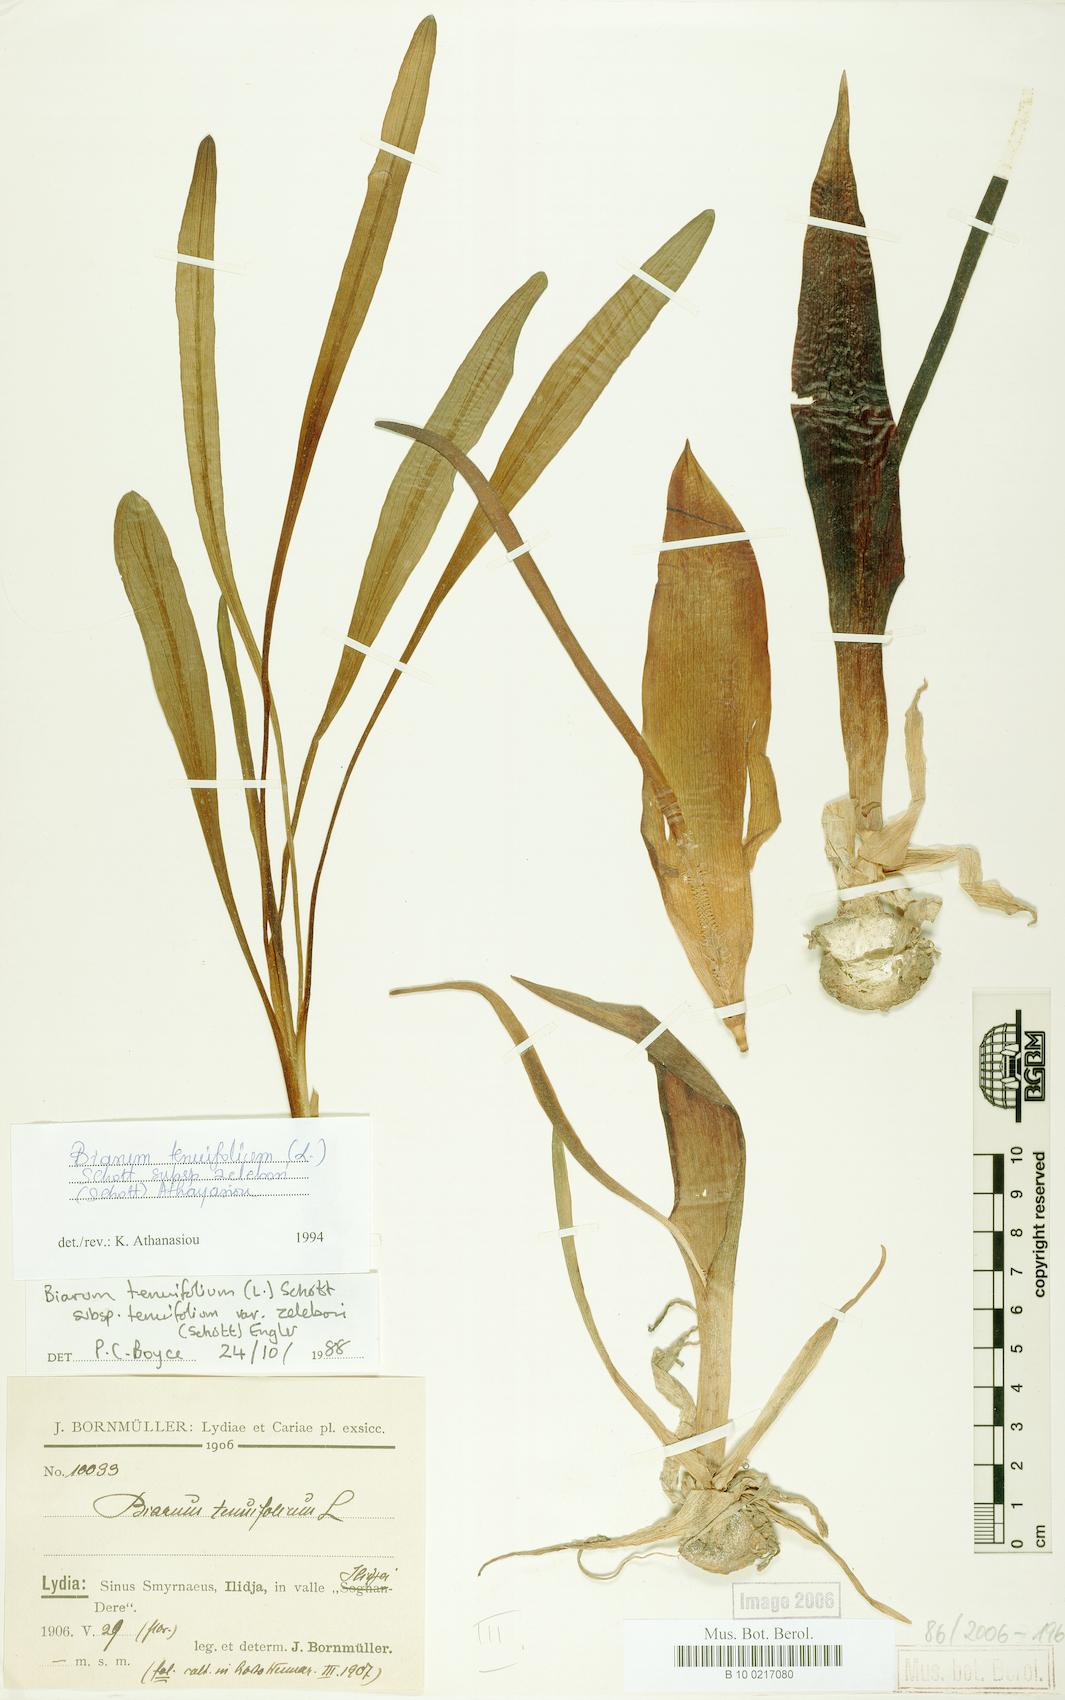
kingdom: Plantae
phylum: Tracheophyta
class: Liliopsida
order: Alismatales
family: Araceae
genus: Biarum
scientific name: Biarum tenuifolium
